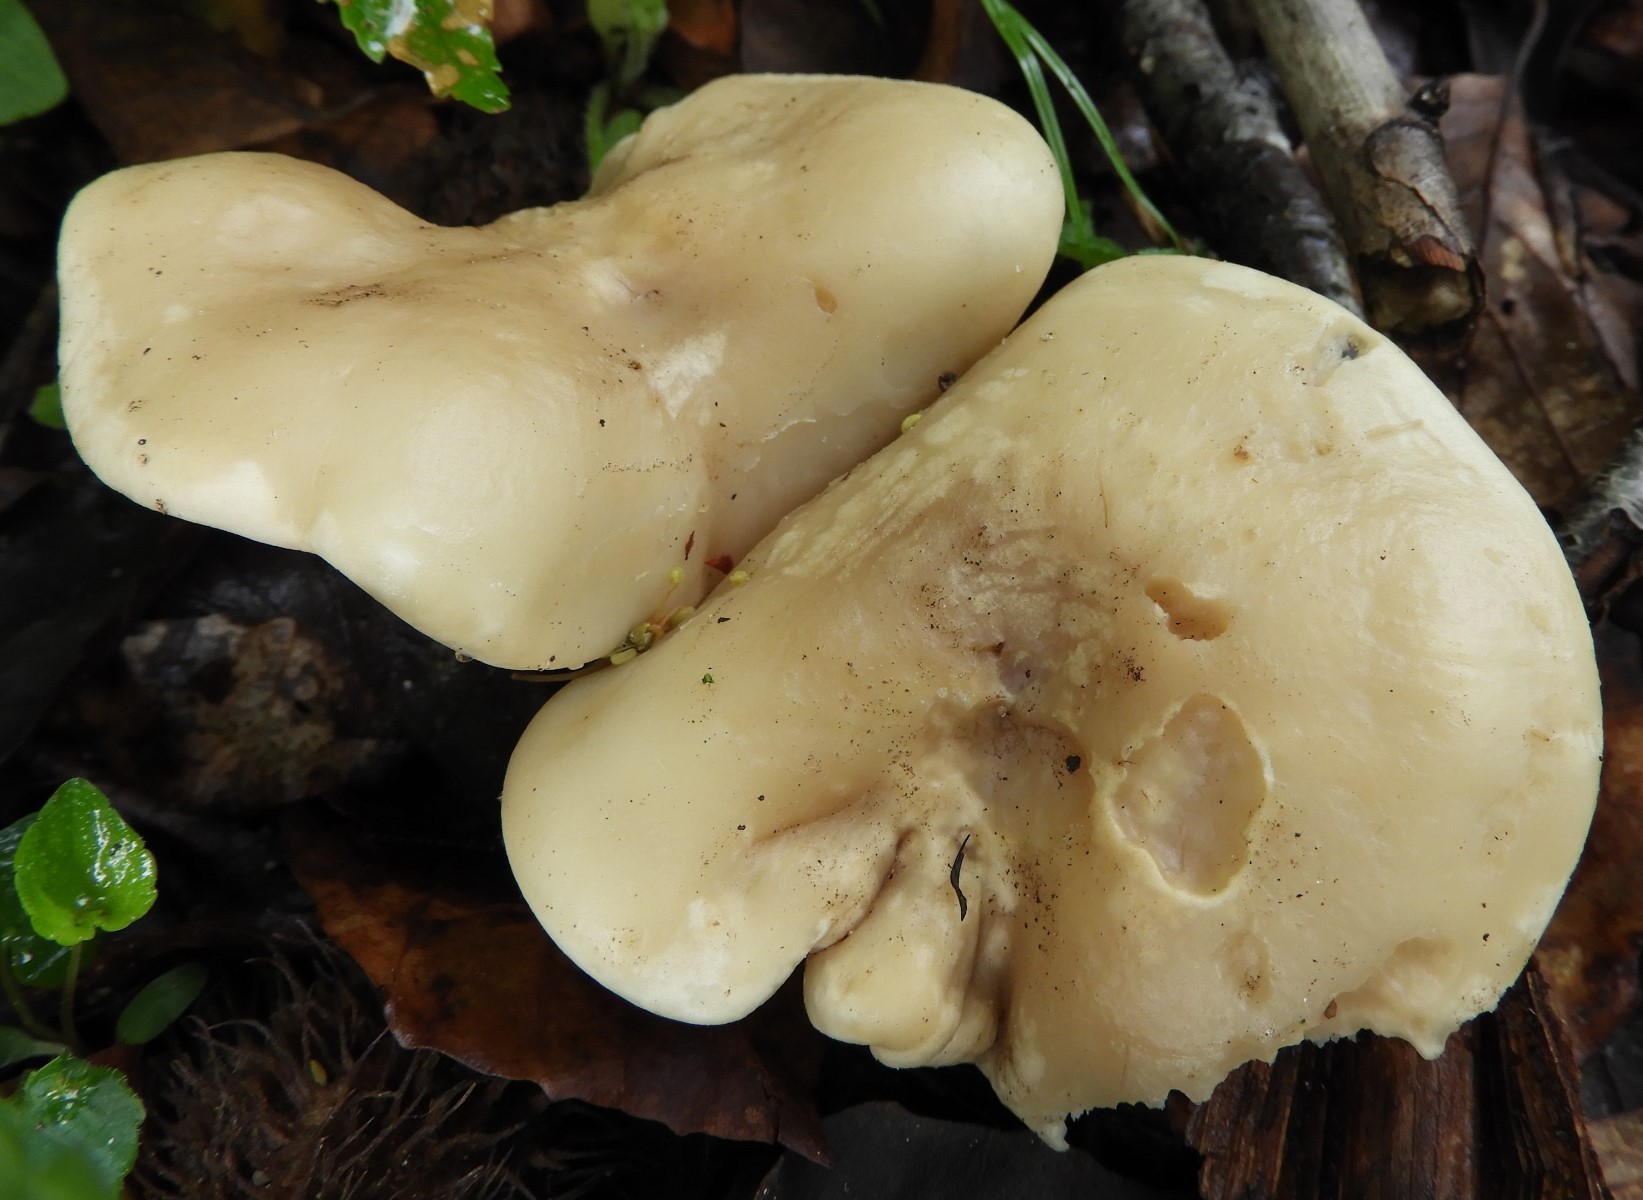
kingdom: Fungi
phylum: Basidiomycota
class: Agaricomycetes
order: Agaricales
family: Lyophyllaceae
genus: Calocybe
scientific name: Calocybe gambosa
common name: vårmusseron
